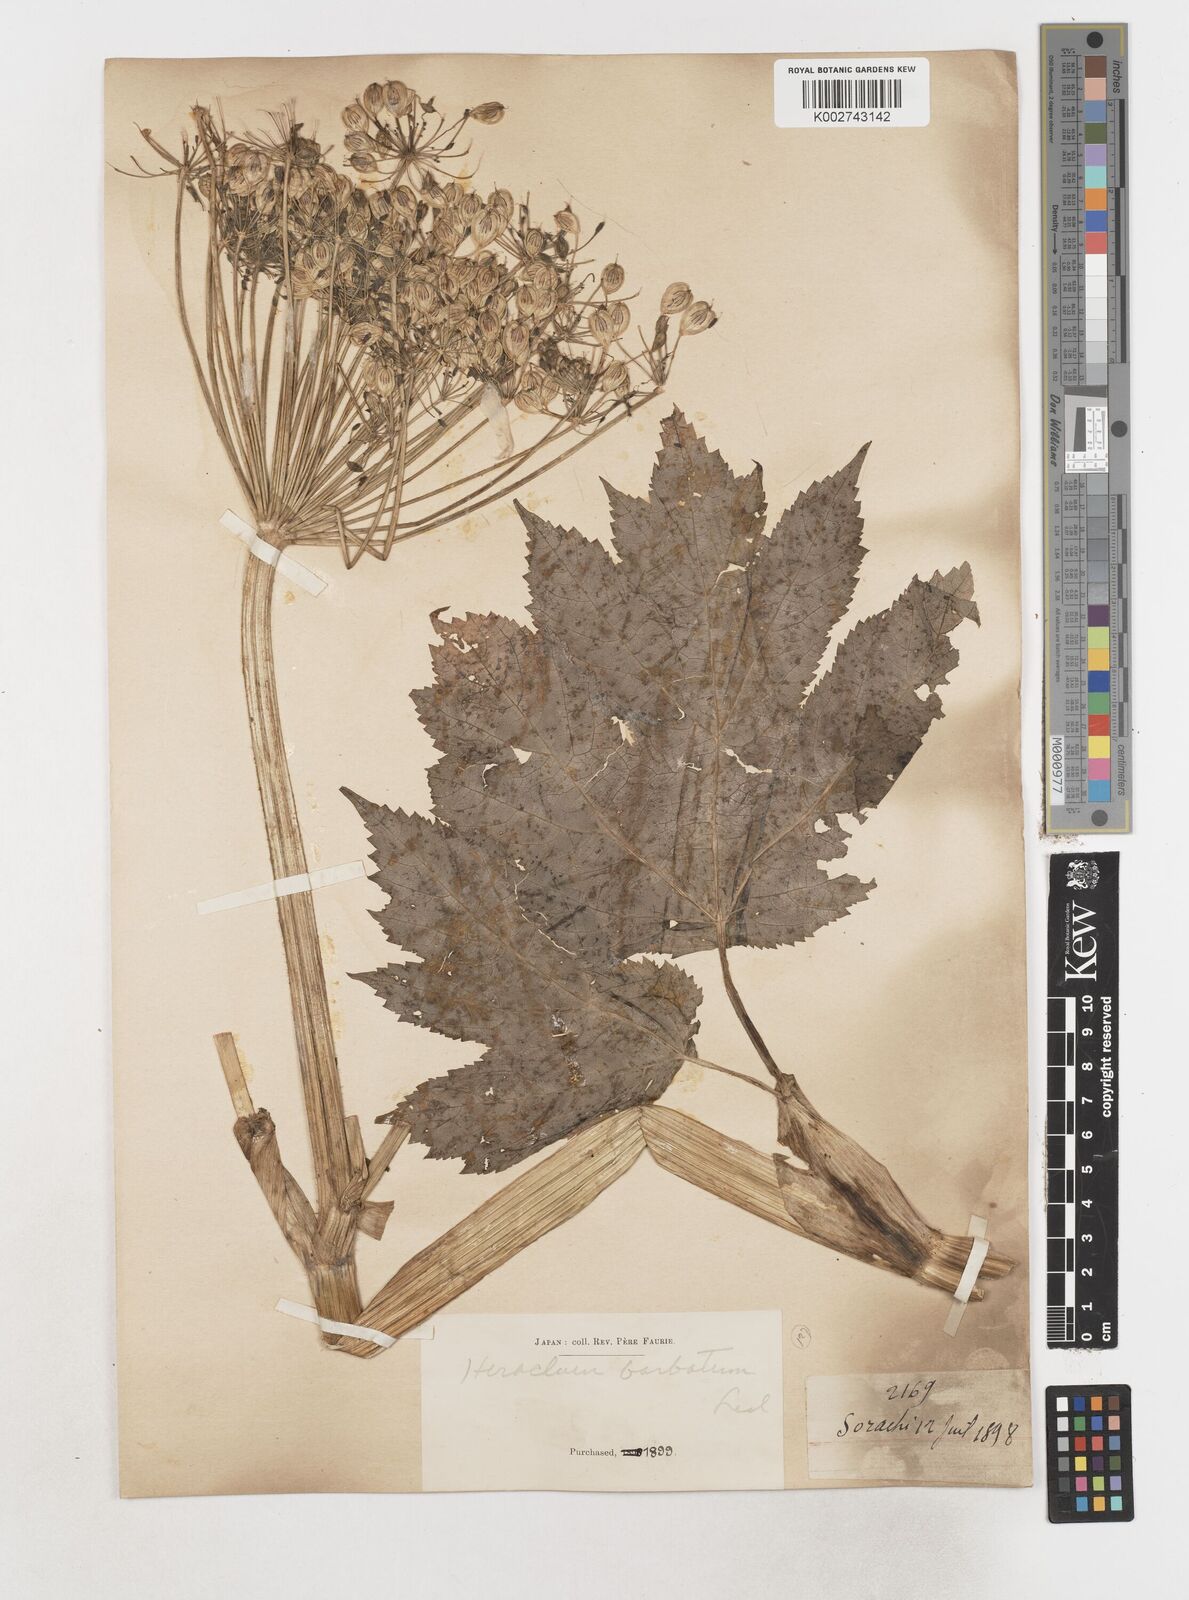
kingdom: Plantae
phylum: Tracheophyta
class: Magnoliopsida
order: Apiales
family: Apiaceae
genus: Heracleum
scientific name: Heracleum dissectum
